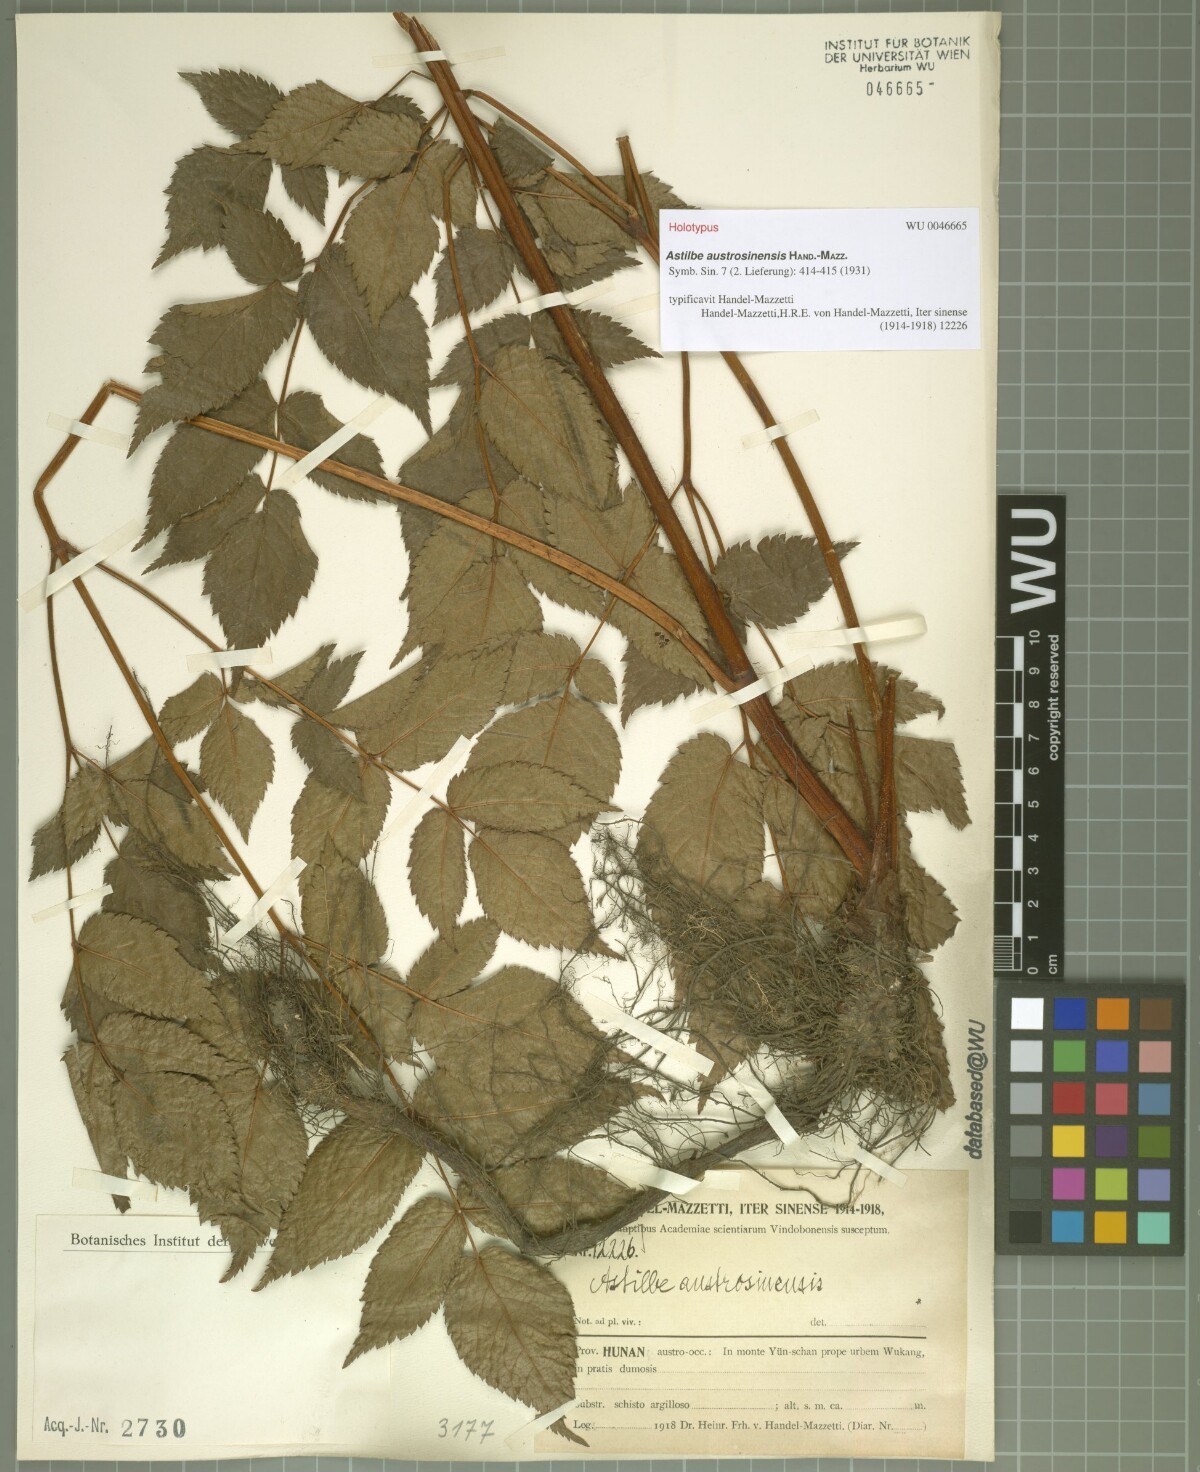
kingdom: Plantae
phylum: Tracheophyta
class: Magnoliopsida
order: Saxifragales
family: Saxifragaceae
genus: Astilbe
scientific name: Astilbe grandis
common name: Korean astilbe
